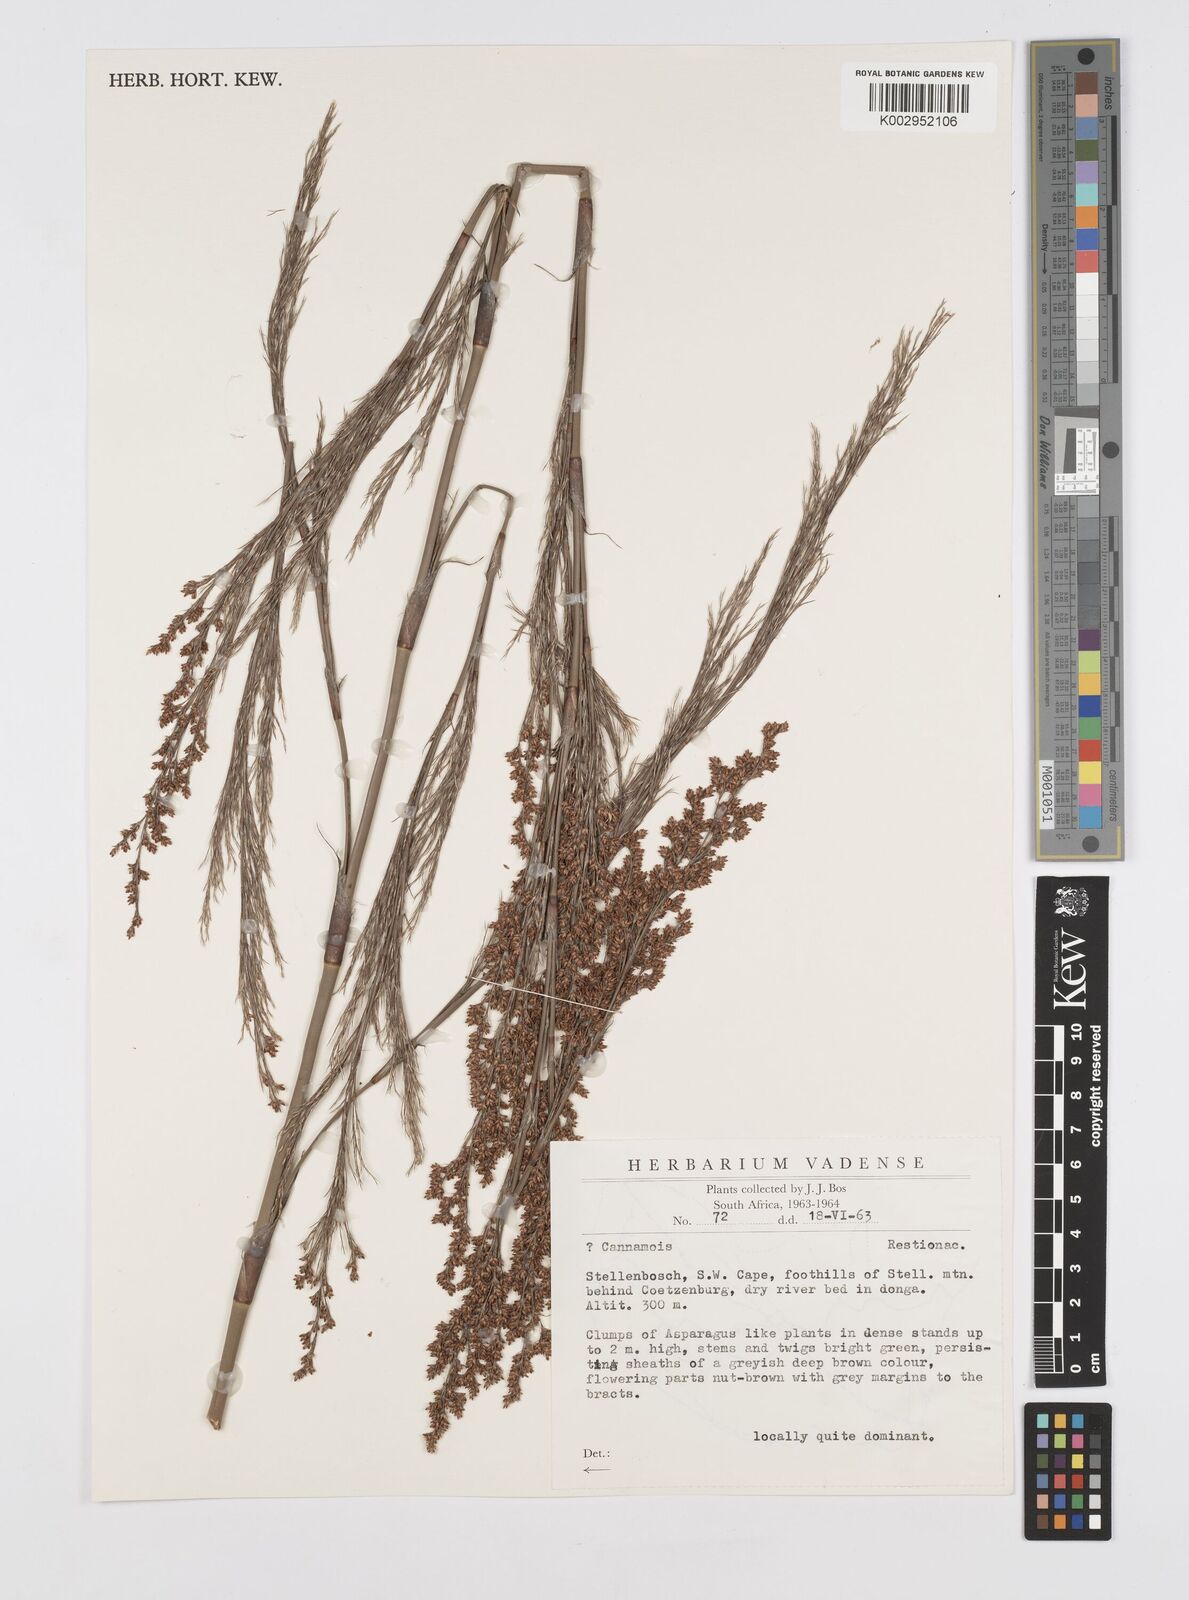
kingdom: Plantae
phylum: Tracheophyta
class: Liliopsida
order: Poales
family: Restionaceae
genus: Restio
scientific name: Restio paniculatus
